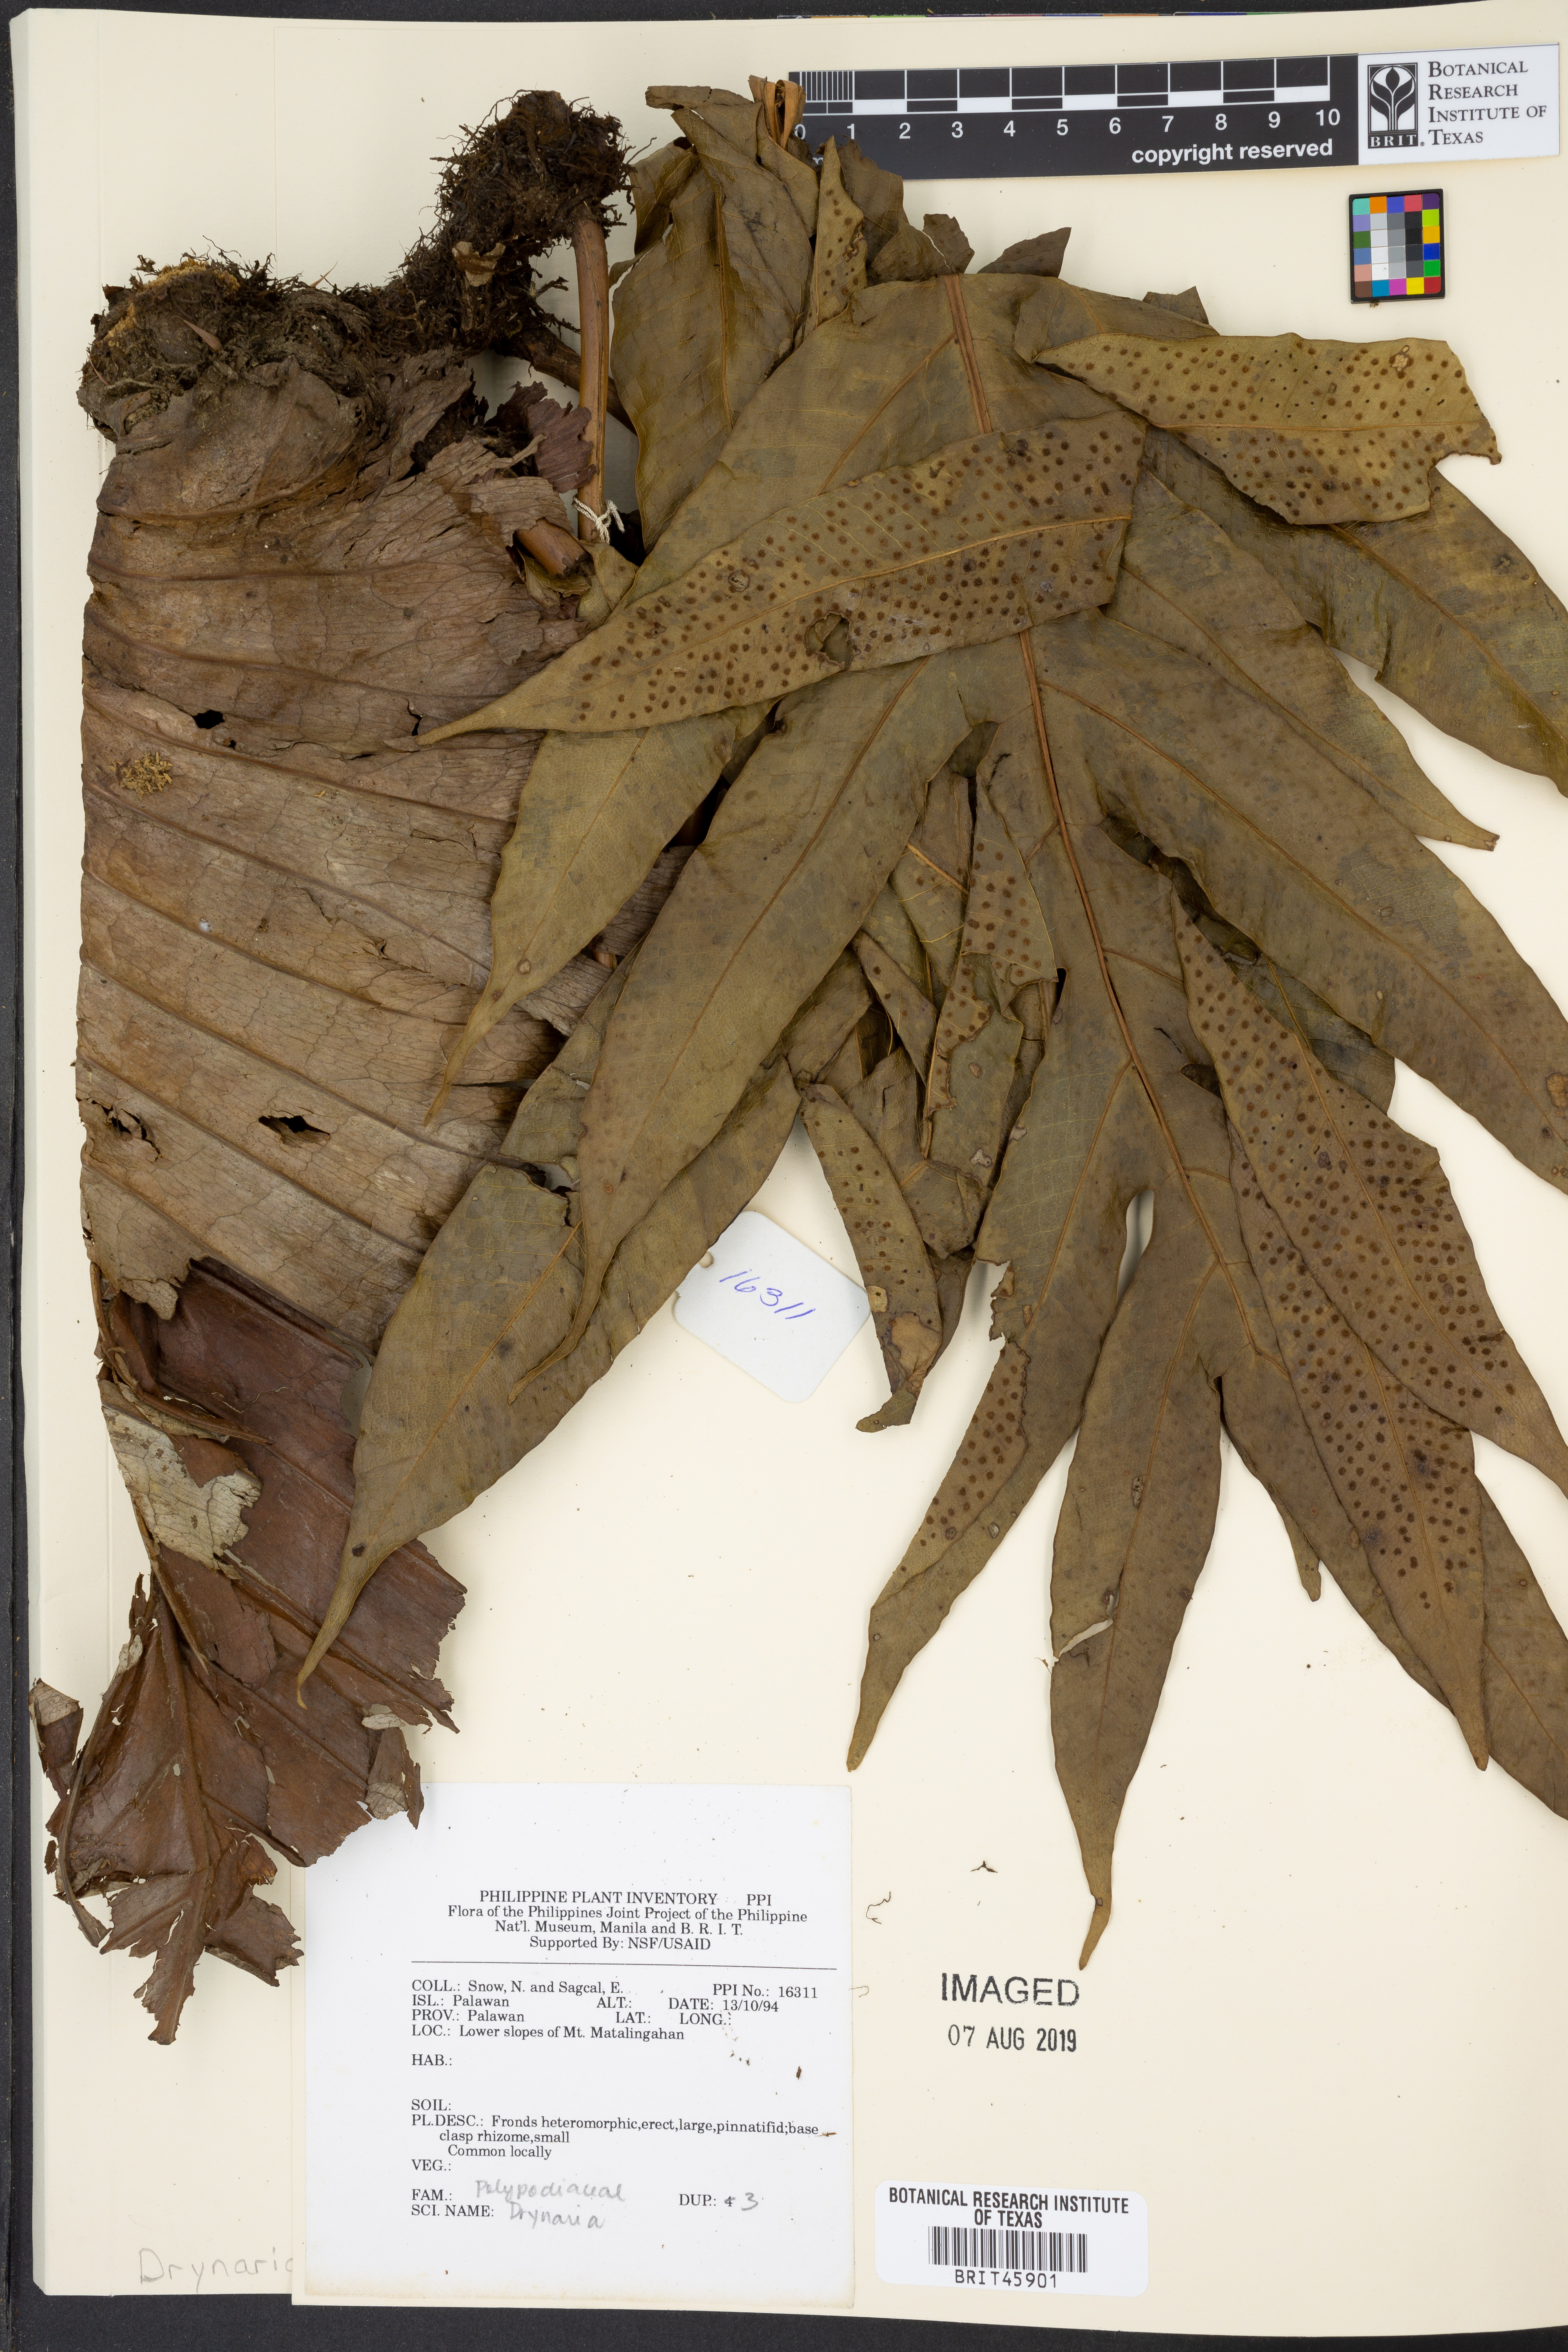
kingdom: Plantae
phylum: Tracheophyta
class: Polypodiopsida
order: Polypodiales
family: Polypodiaceae
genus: Drynaria
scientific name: Drynaria
